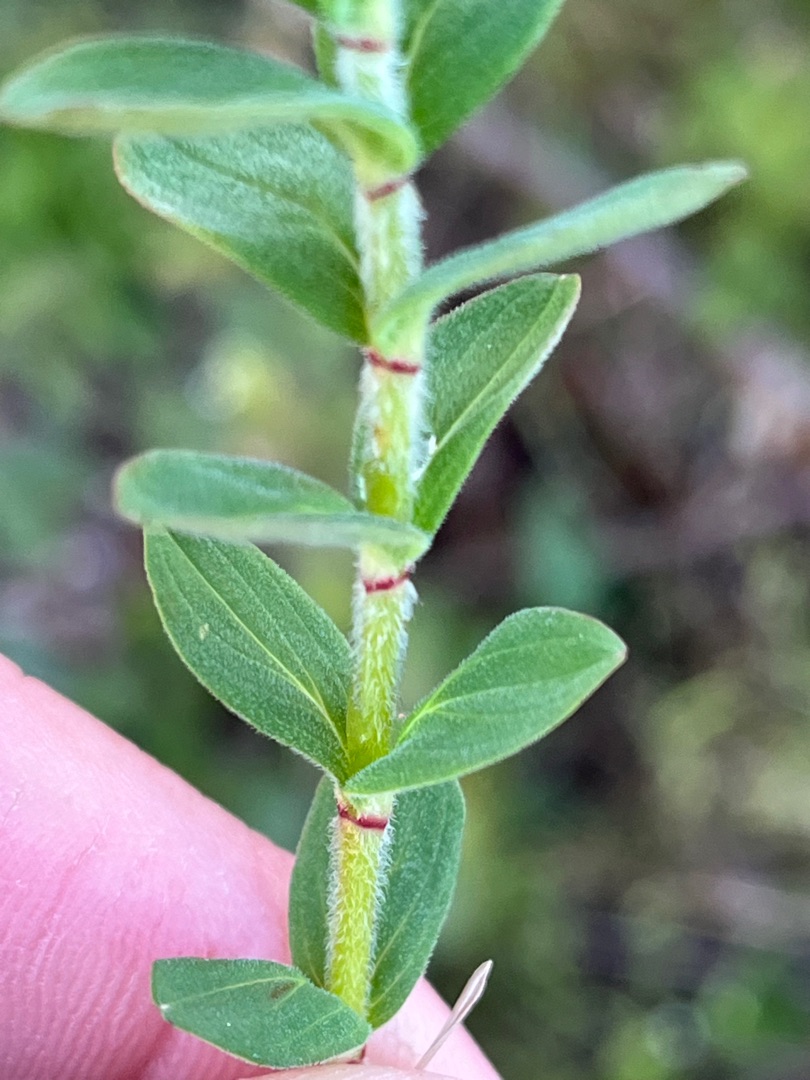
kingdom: Plantae
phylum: Tracheophyta
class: Magnoliopsida
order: Malpighiales
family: Hypericaceae
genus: Hypericum
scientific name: Hypericum hirsutum
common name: Lådden perikon
